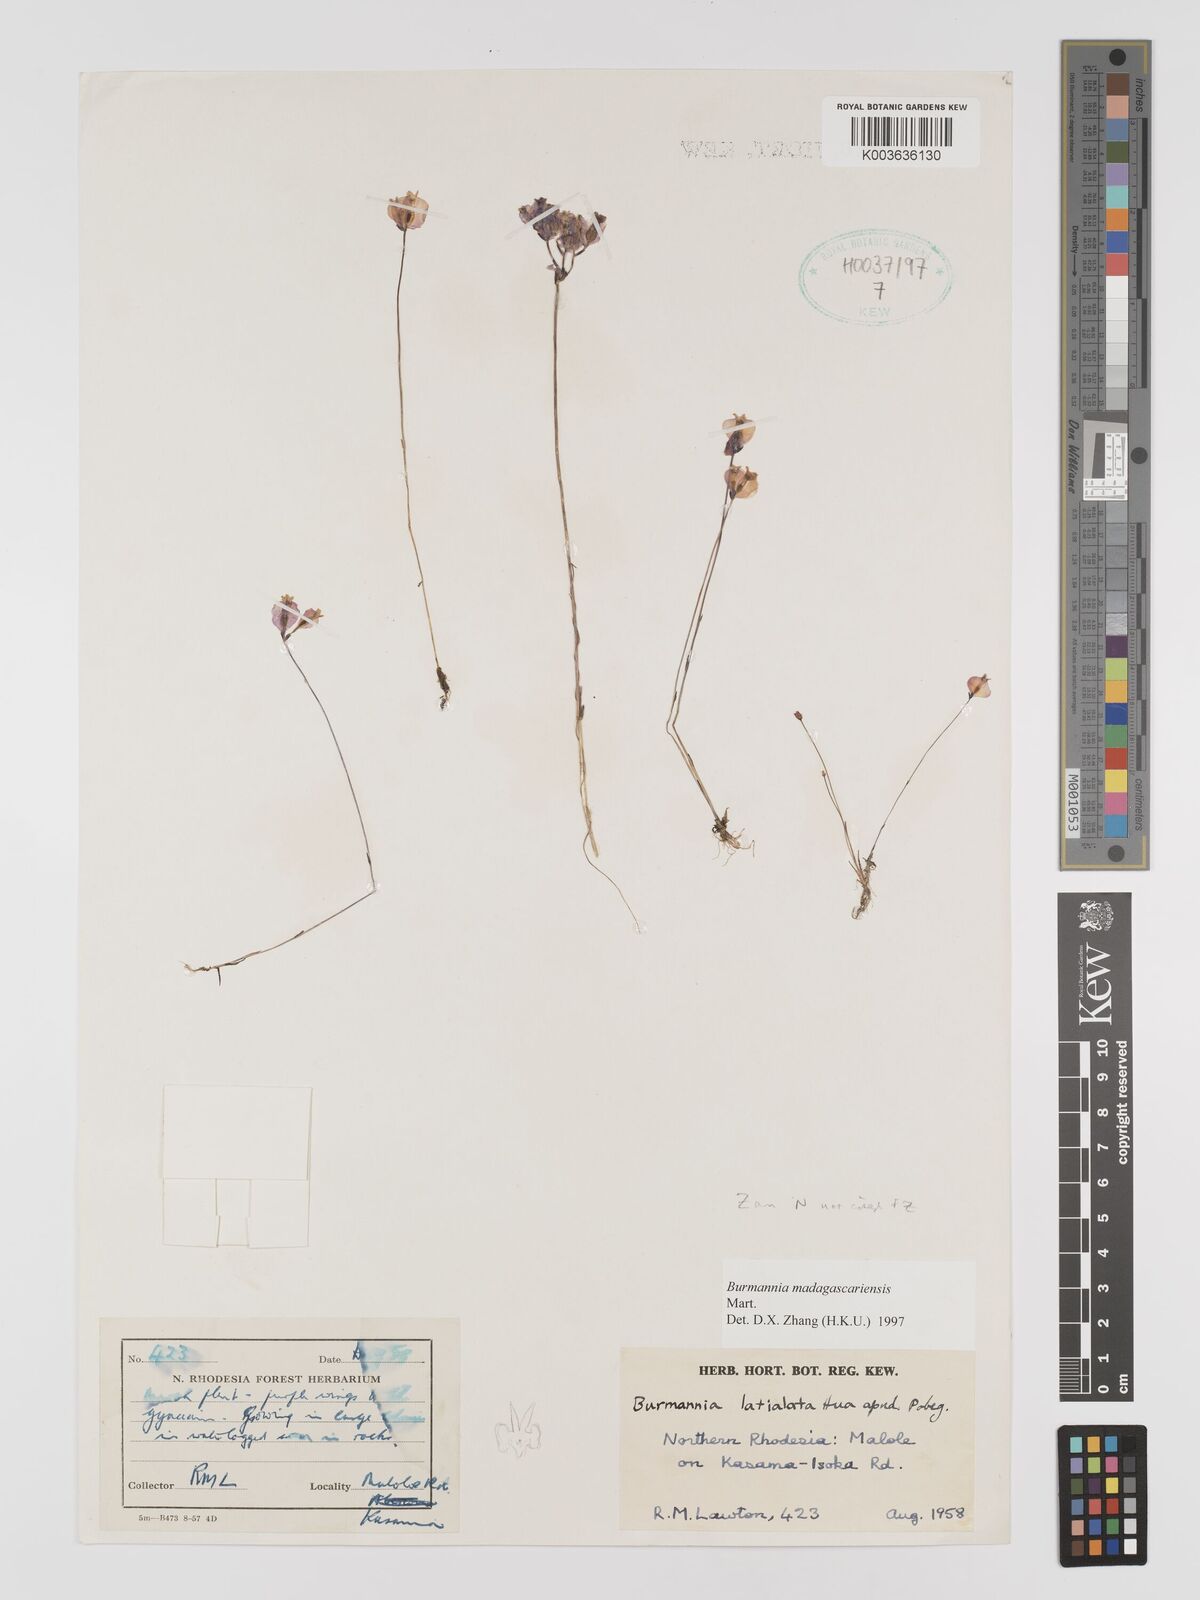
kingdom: Plantae
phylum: Tracheophyta
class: Liliopsida
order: Dioscoreales
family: Burmanniaceae
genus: Burmannia
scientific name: Burmannia madagascariensis
